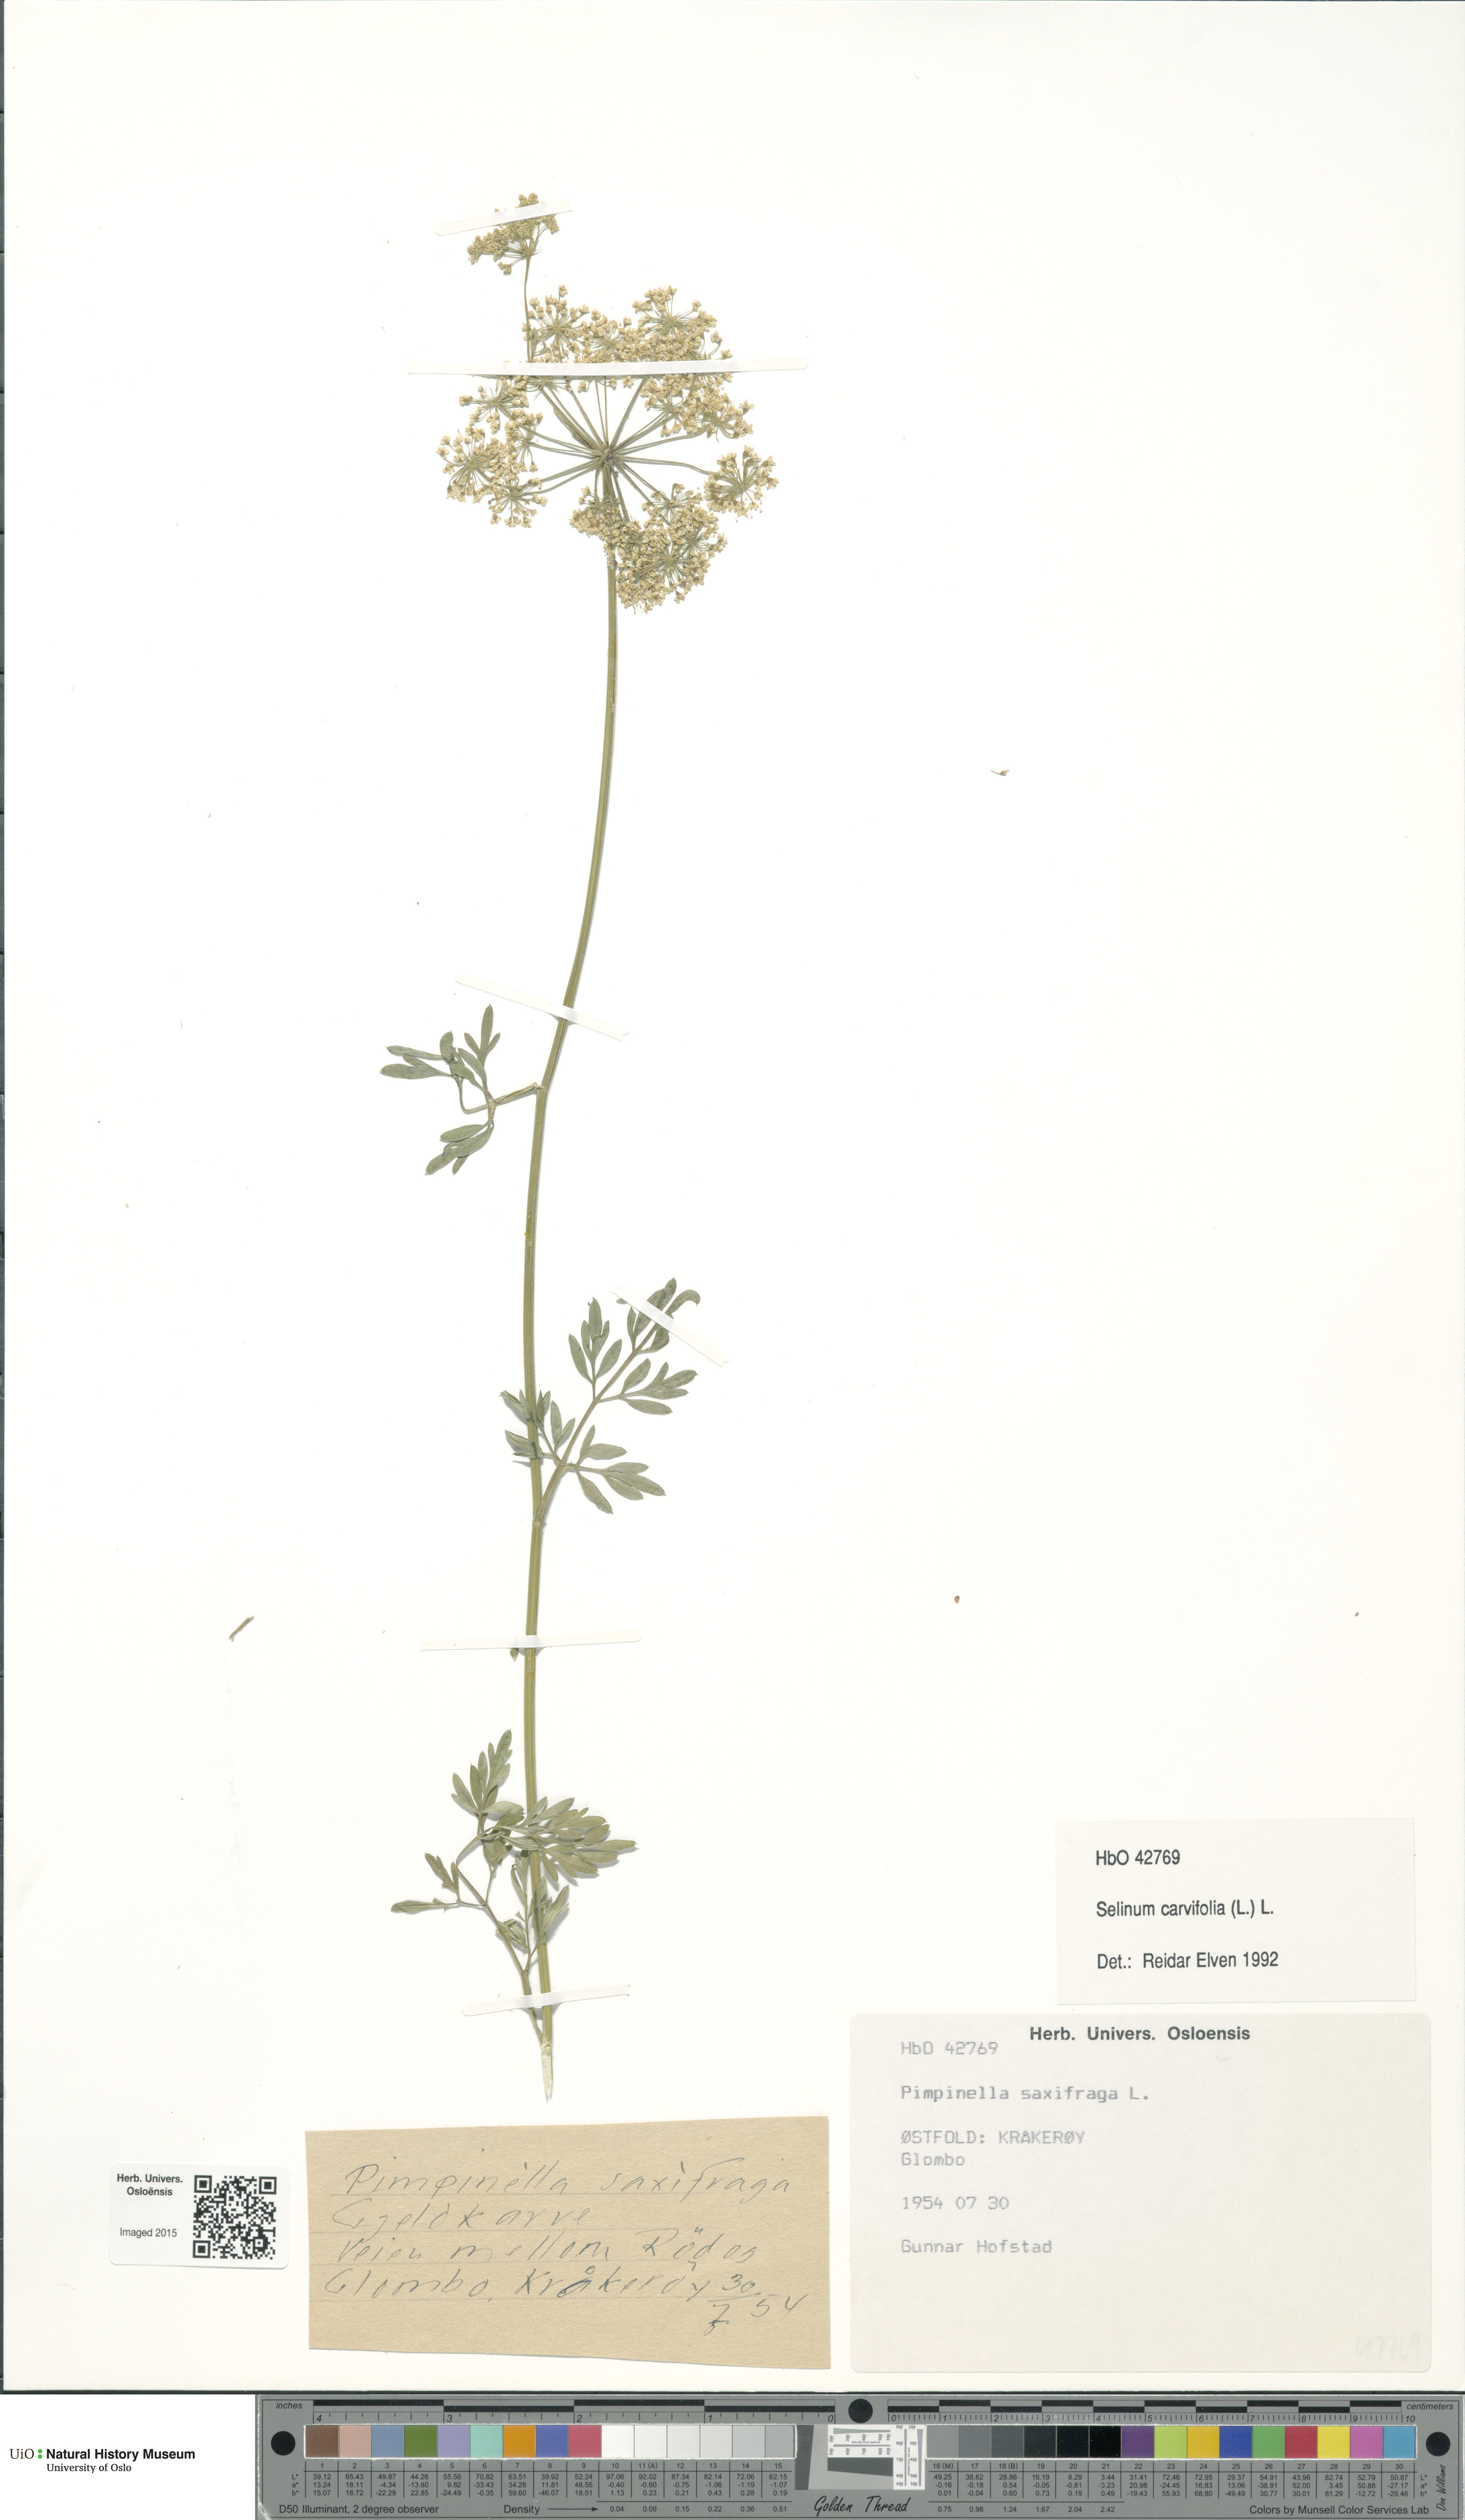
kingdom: Plantae
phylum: Tracheophyta
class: Magnoliopsida
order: Apiales
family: Apiaceae
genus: Selinum
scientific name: Selinum carvifolia
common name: Cambridge milk-parsley
